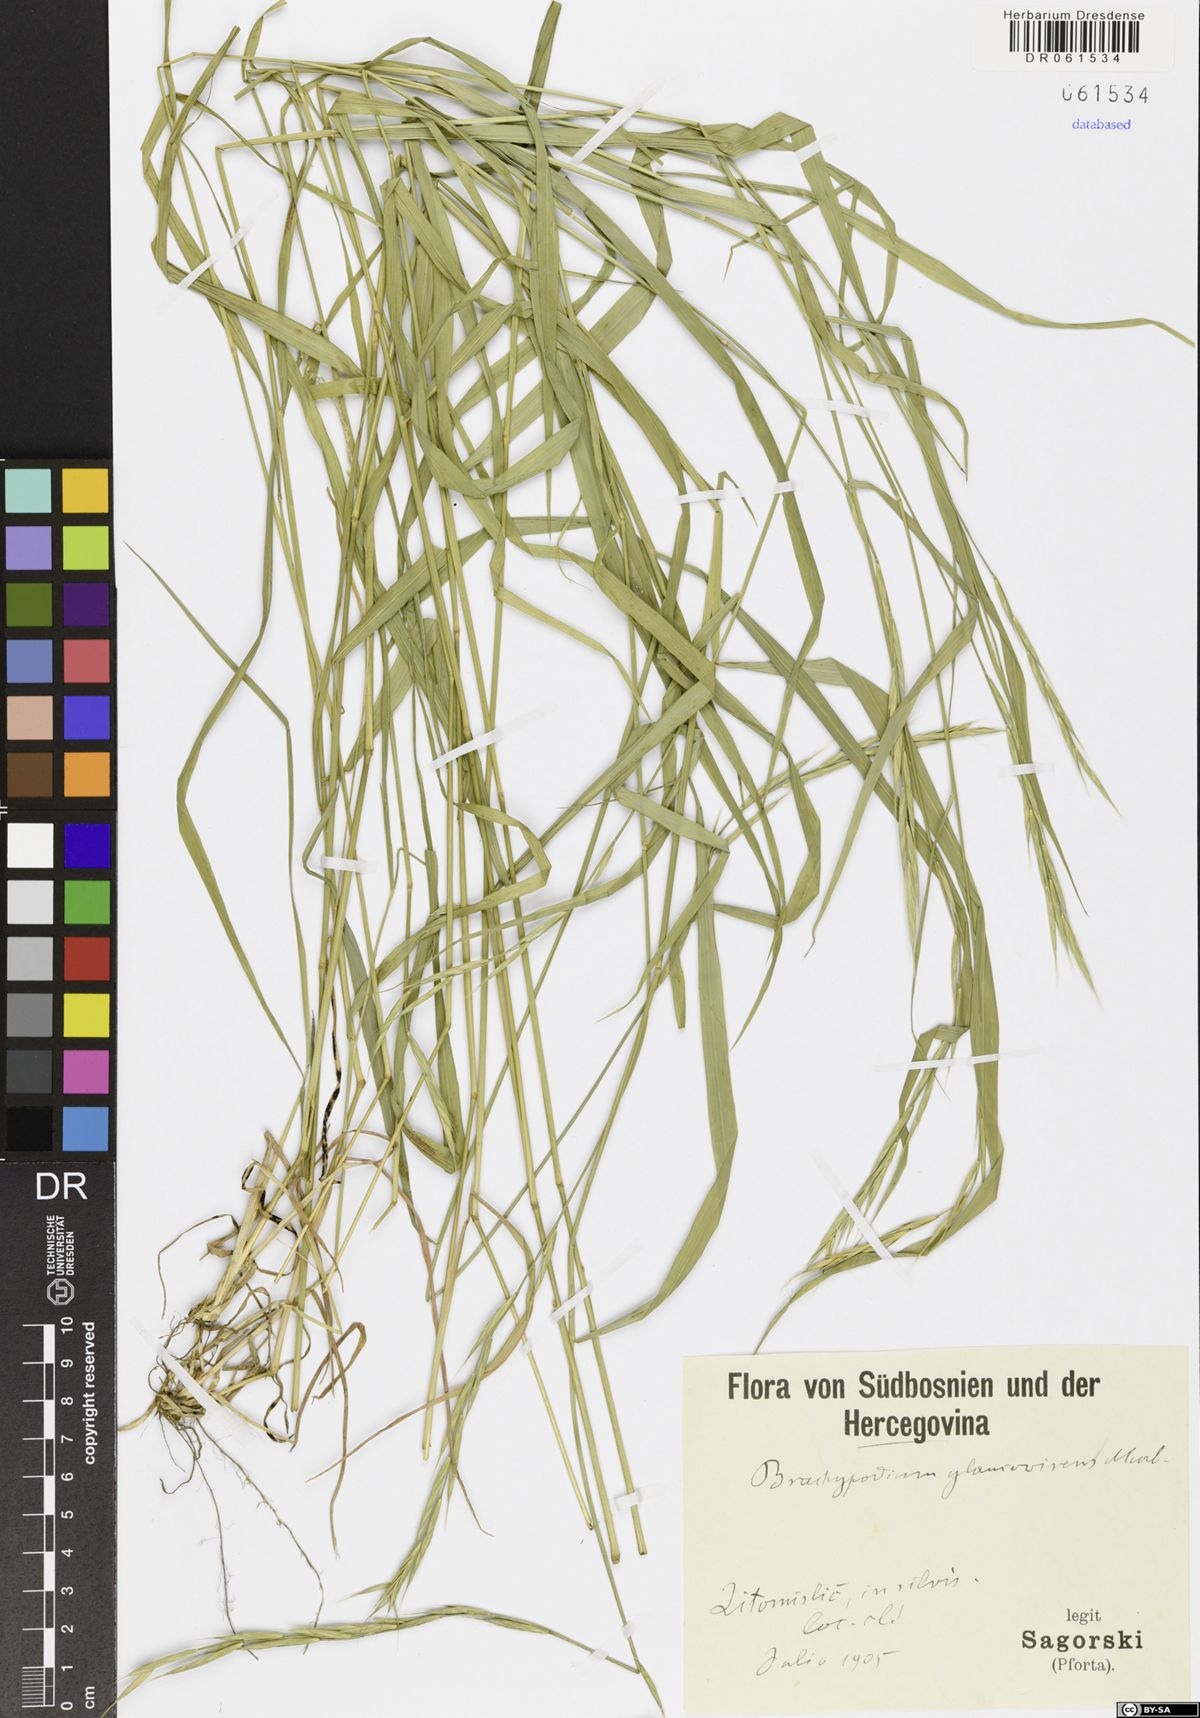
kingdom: Plantae
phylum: Tracheophyta
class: Liliopsida
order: Poales
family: Poaceae
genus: Brachypodium
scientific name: Brachypodium glaucovirens
